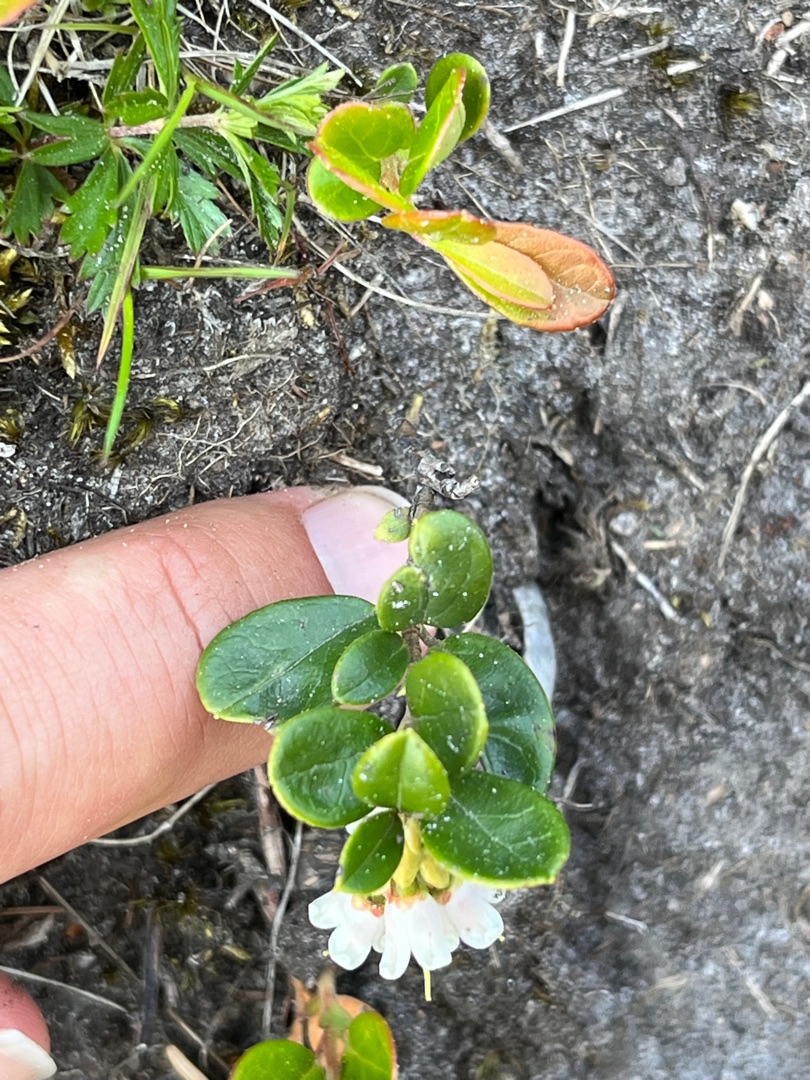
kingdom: Plantae
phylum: Tracheophyta
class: Magnoliopsida
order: Ericales
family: Ericaceae
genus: Vaccinium
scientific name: Vaccinium vitis-idaea
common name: Tyttebær
